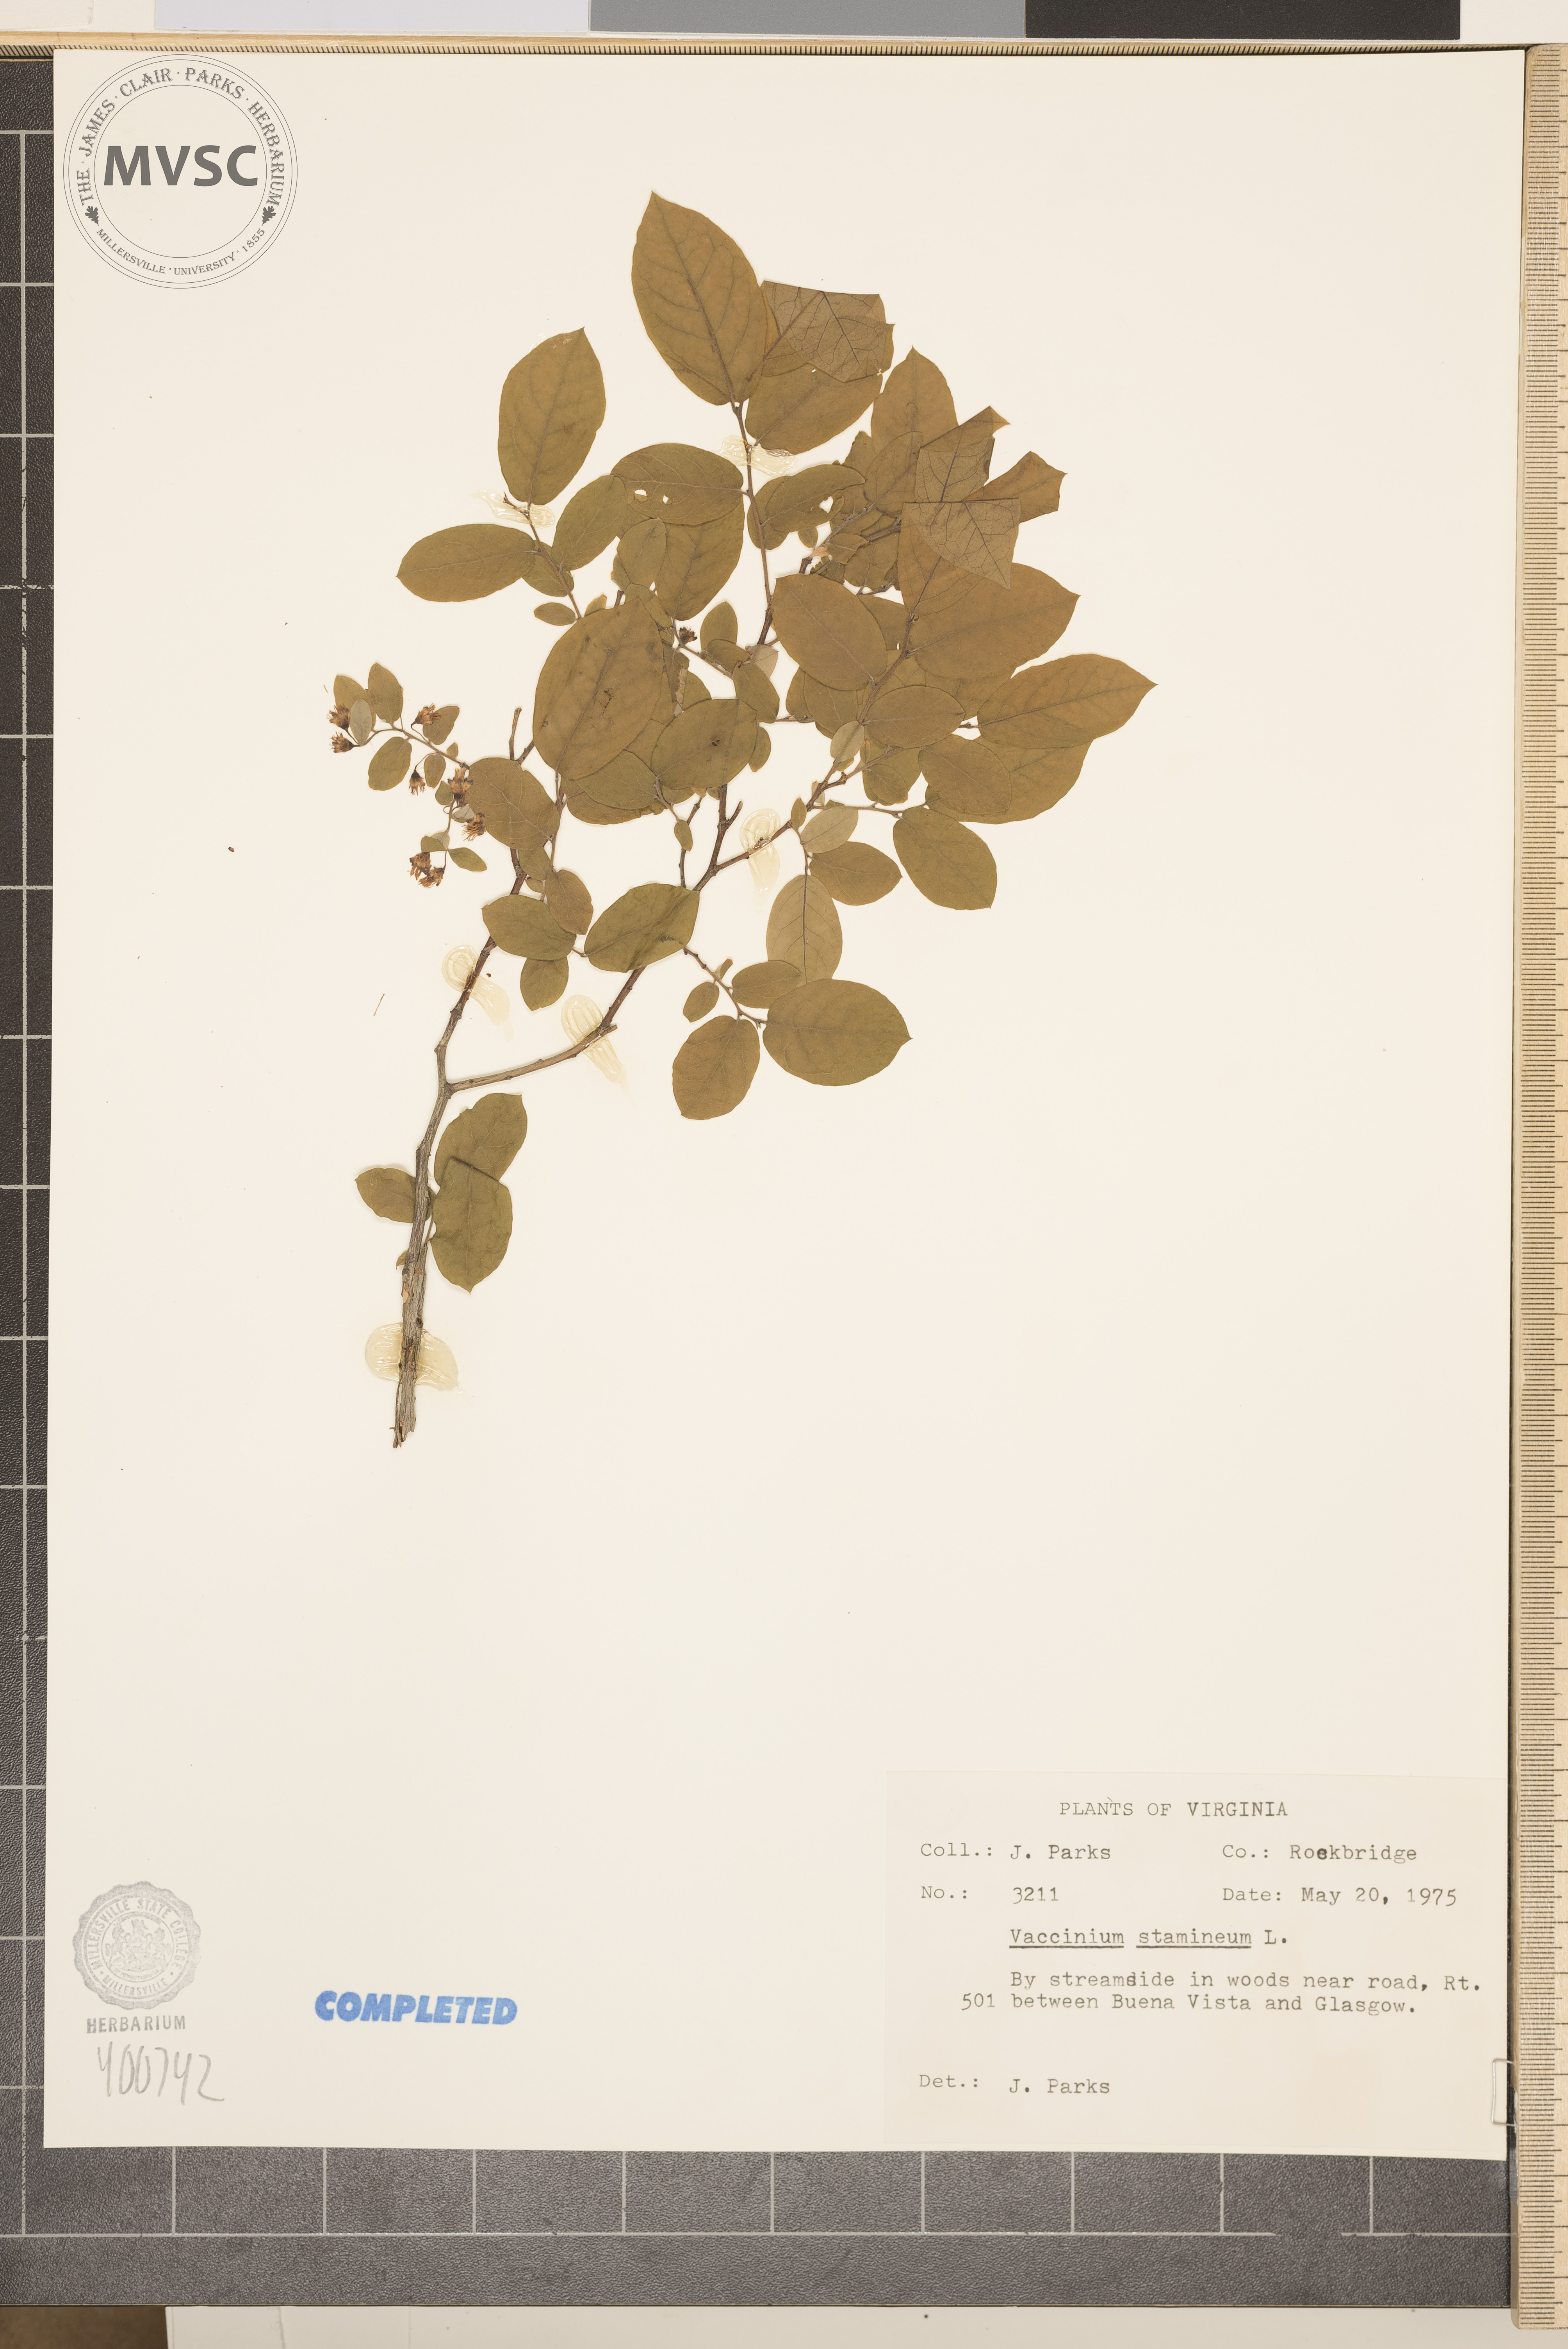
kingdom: Plantae
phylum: Tracheophyta
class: Magnoliopsida
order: Ericales
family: Ericaceae
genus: Vaccinium
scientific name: Vaccinium stamineum
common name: deerberry
